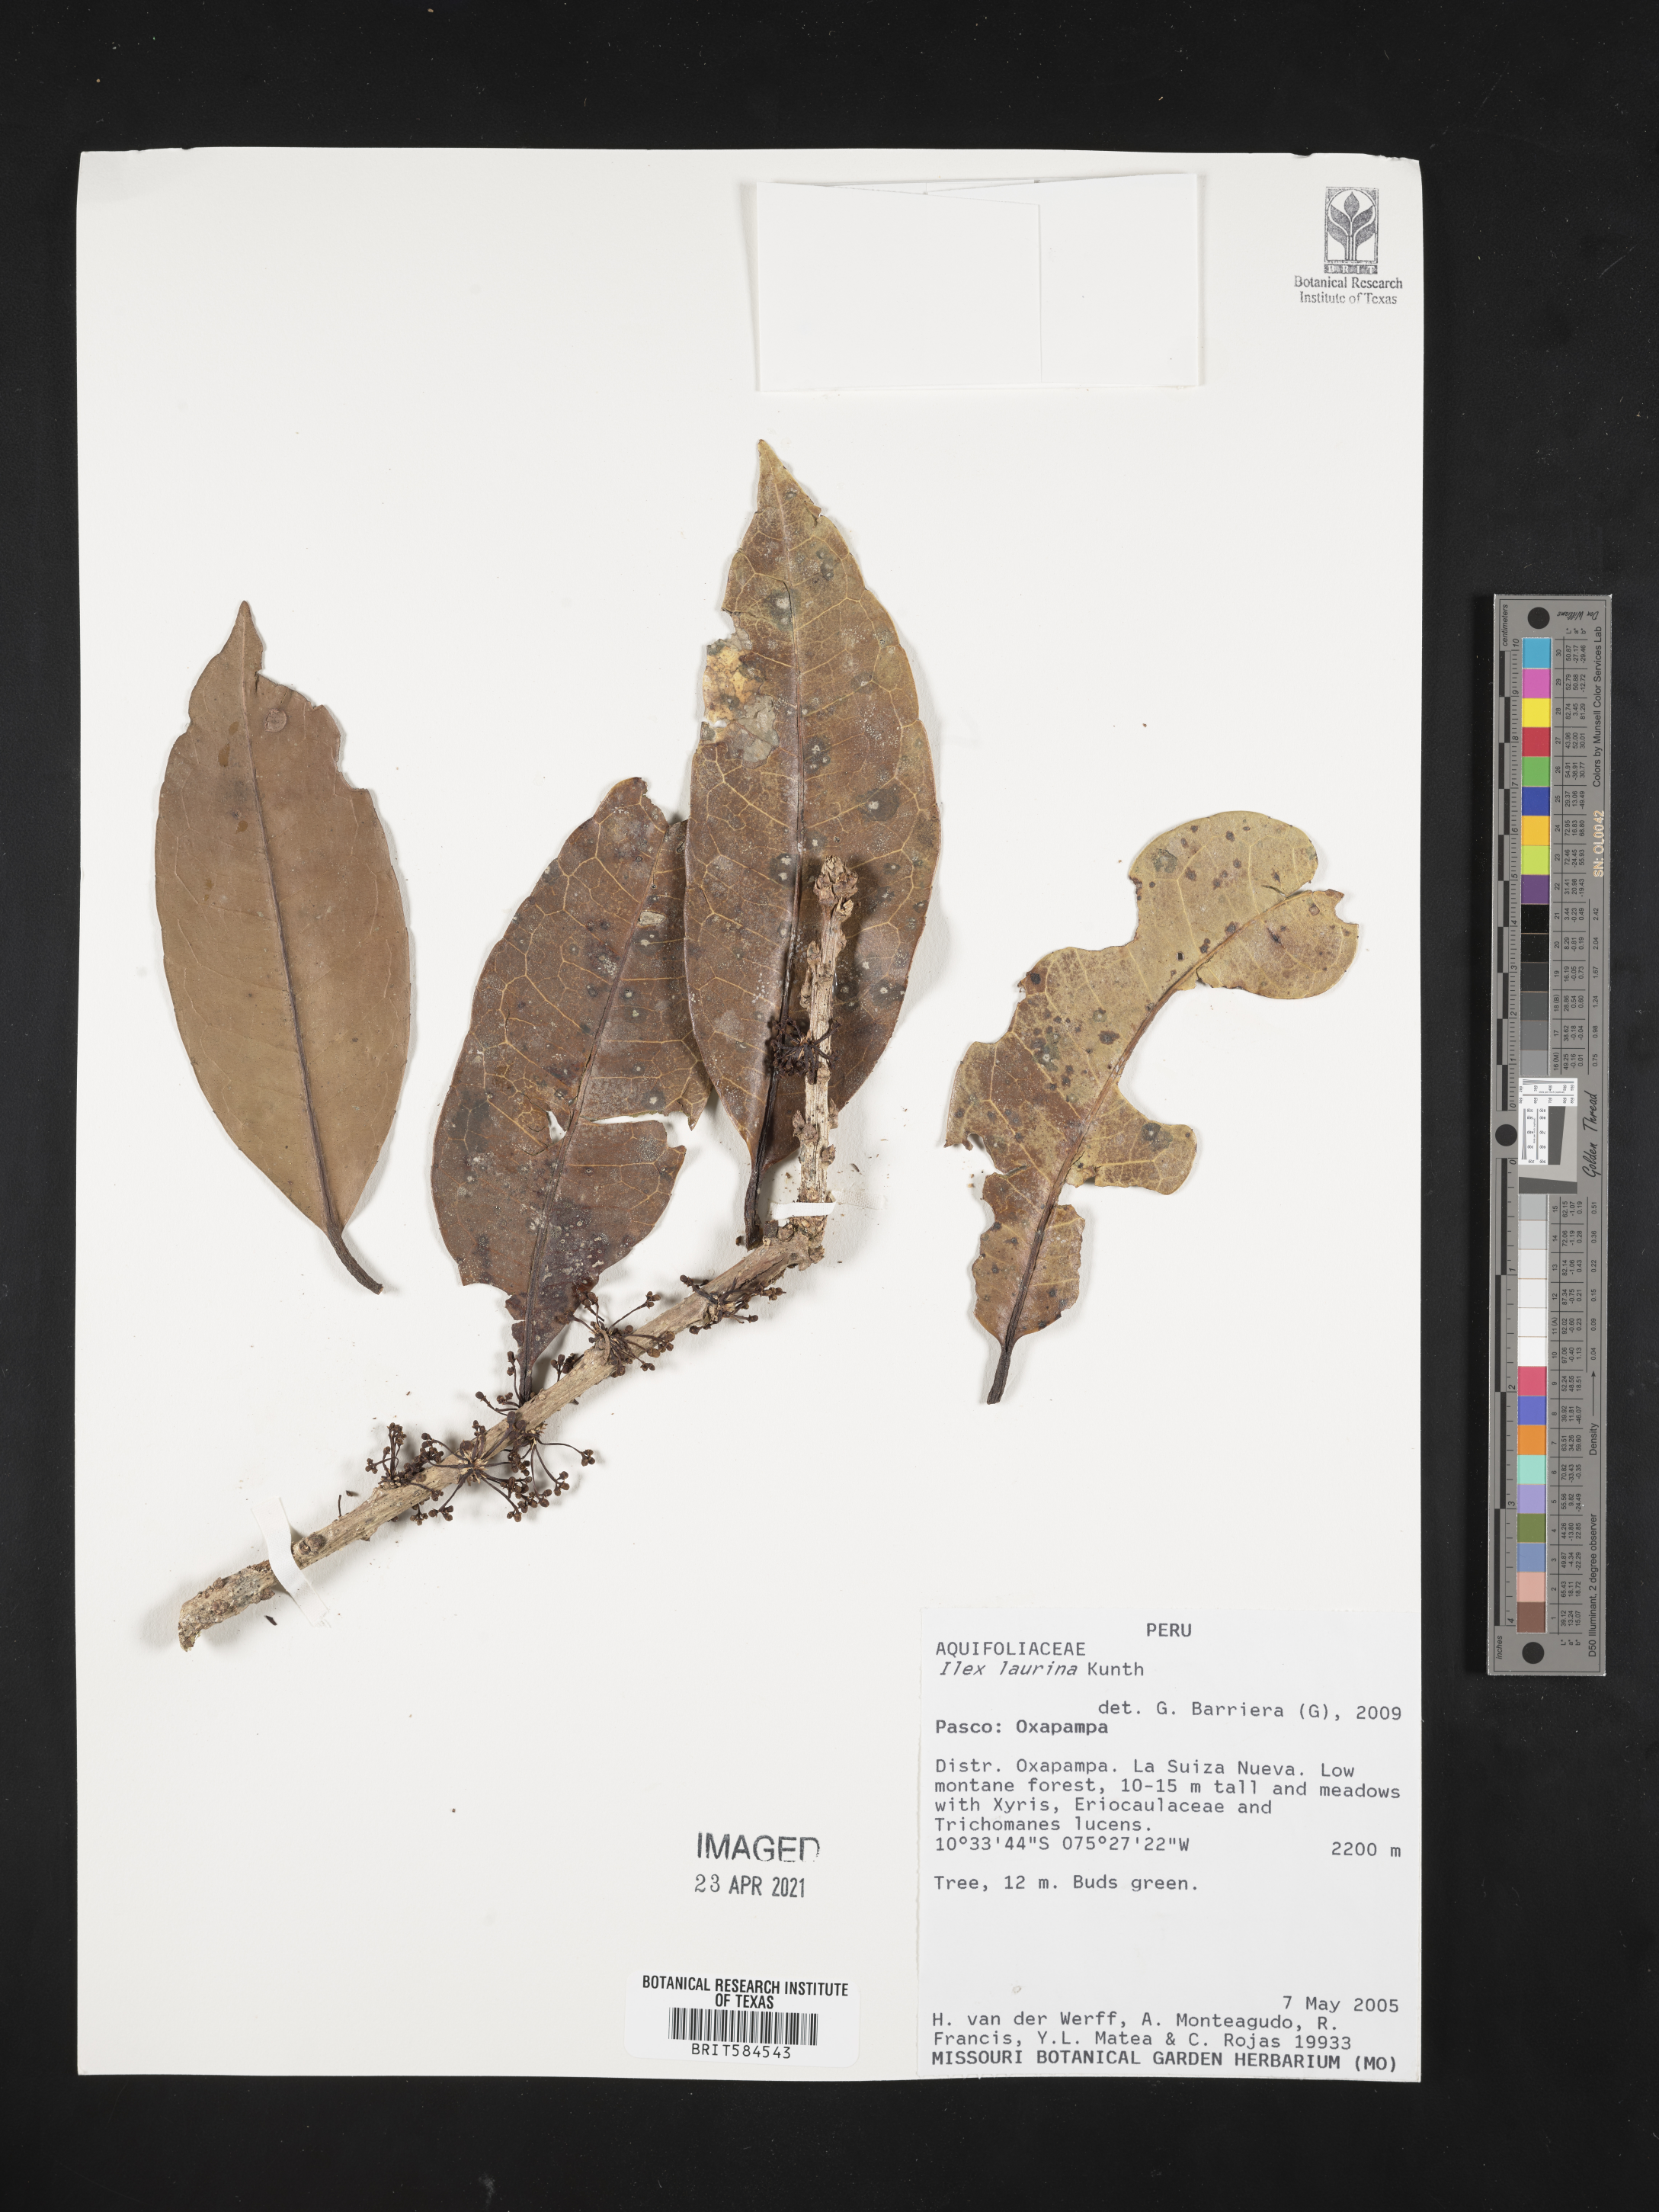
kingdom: Plantae
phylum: Tracheophyta
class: Magnoliopsida
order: Aquifoliales
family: Aquifoliaceae
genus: Ilex
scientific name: Ilex laurina
